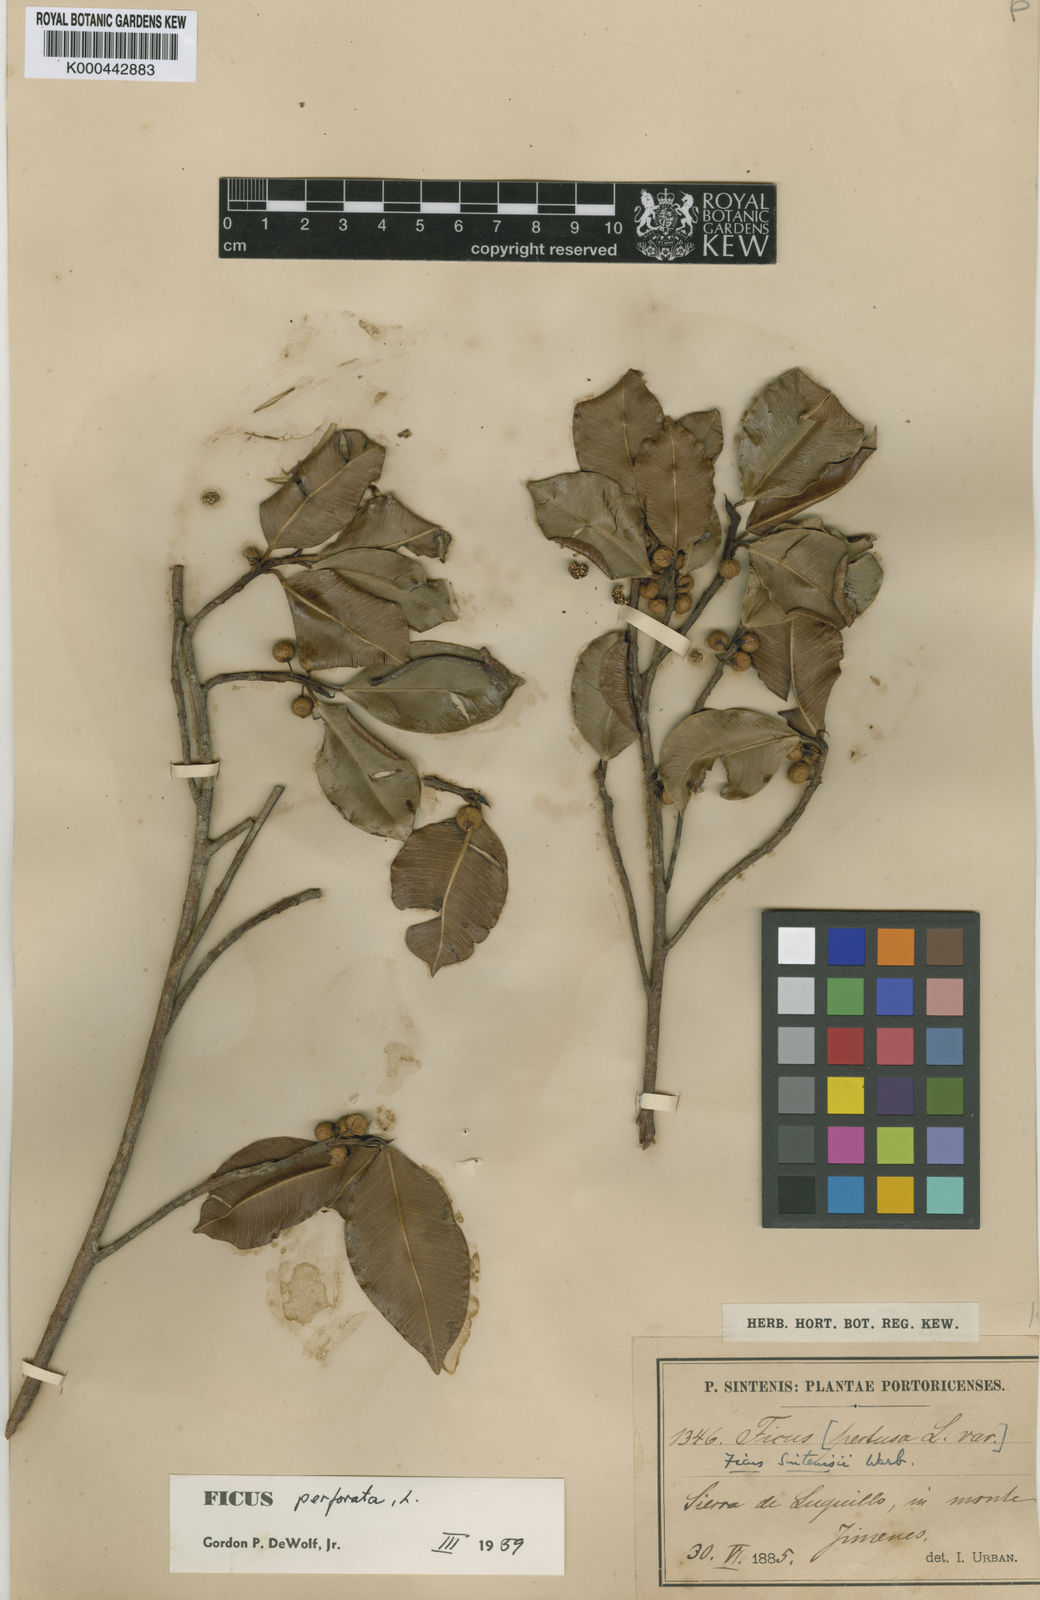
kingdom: Plantae
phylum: Tracheophyta
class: Magnoliopsida
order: Rosales
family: Moraceae
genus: Ficus
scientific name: Ficus americana
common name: Jamaican cherry fig
